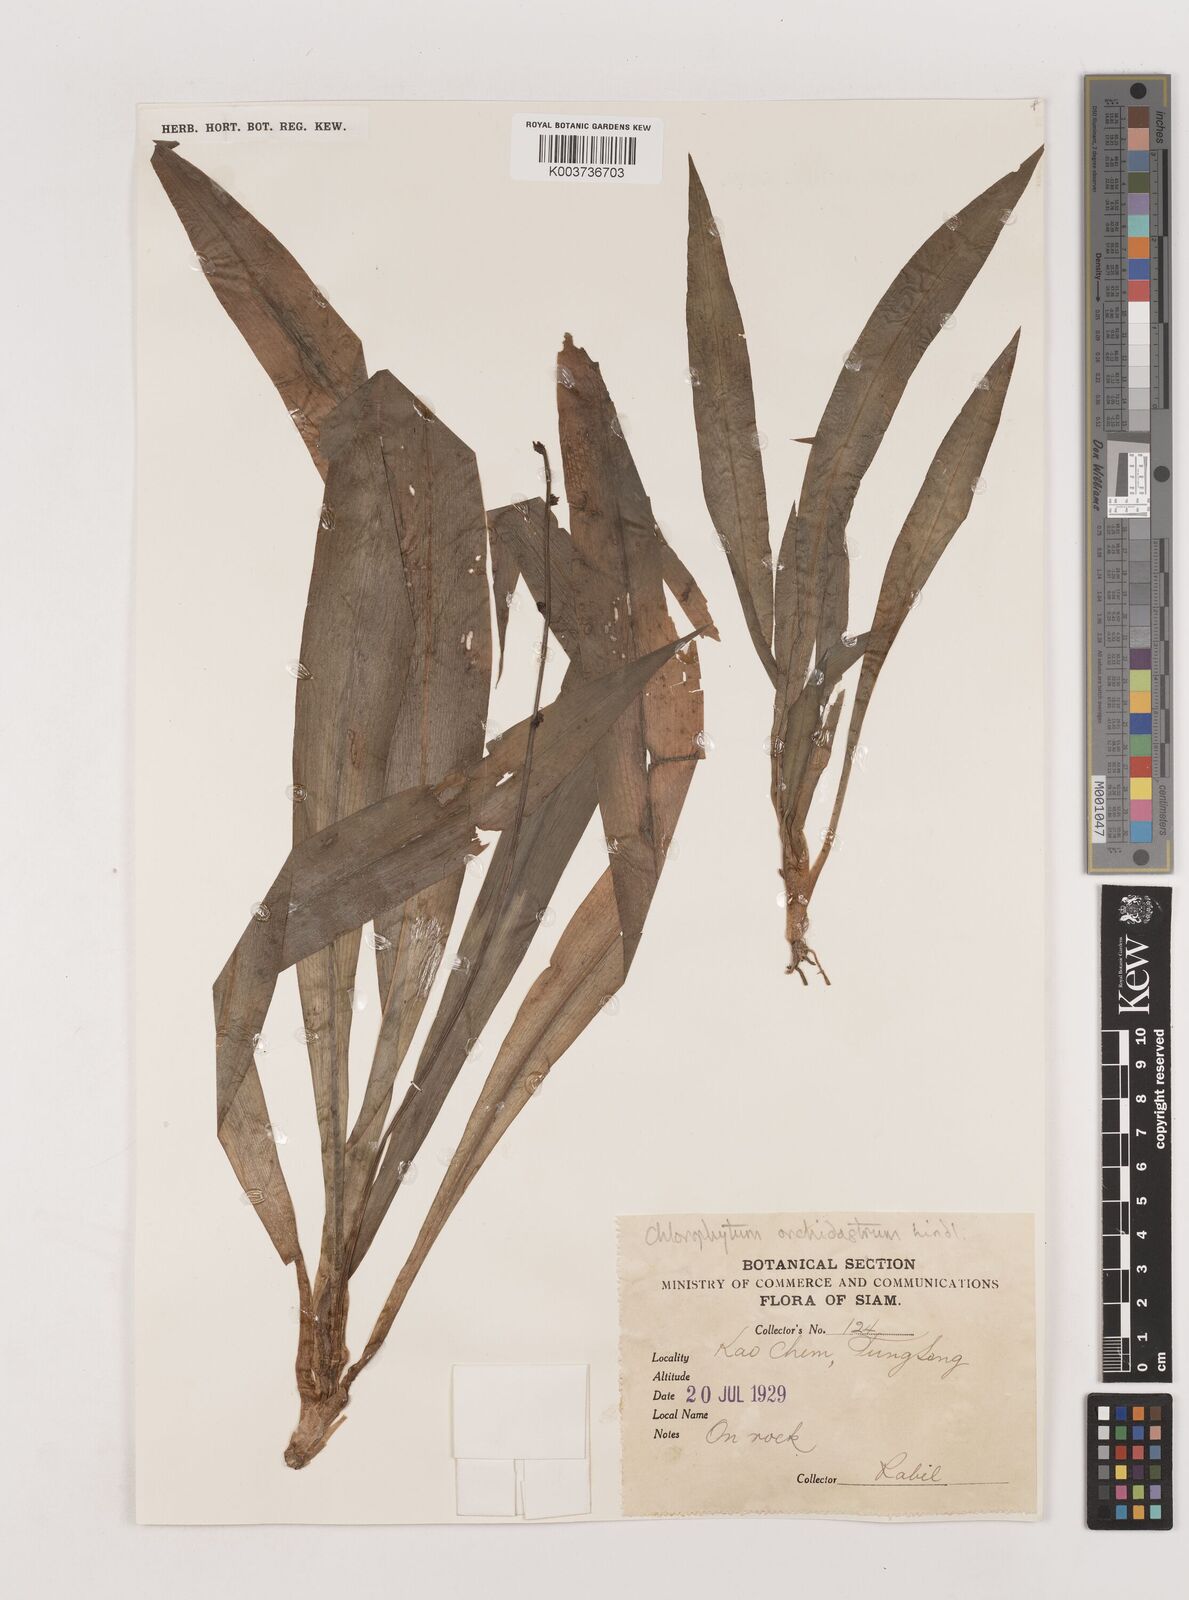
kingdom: Plantae
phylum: Tracheophyta
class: Liliopsida
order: Asparagales
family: Asparagaceae
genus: Chlorophytum
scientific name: Chlorophytum orchidastrum
